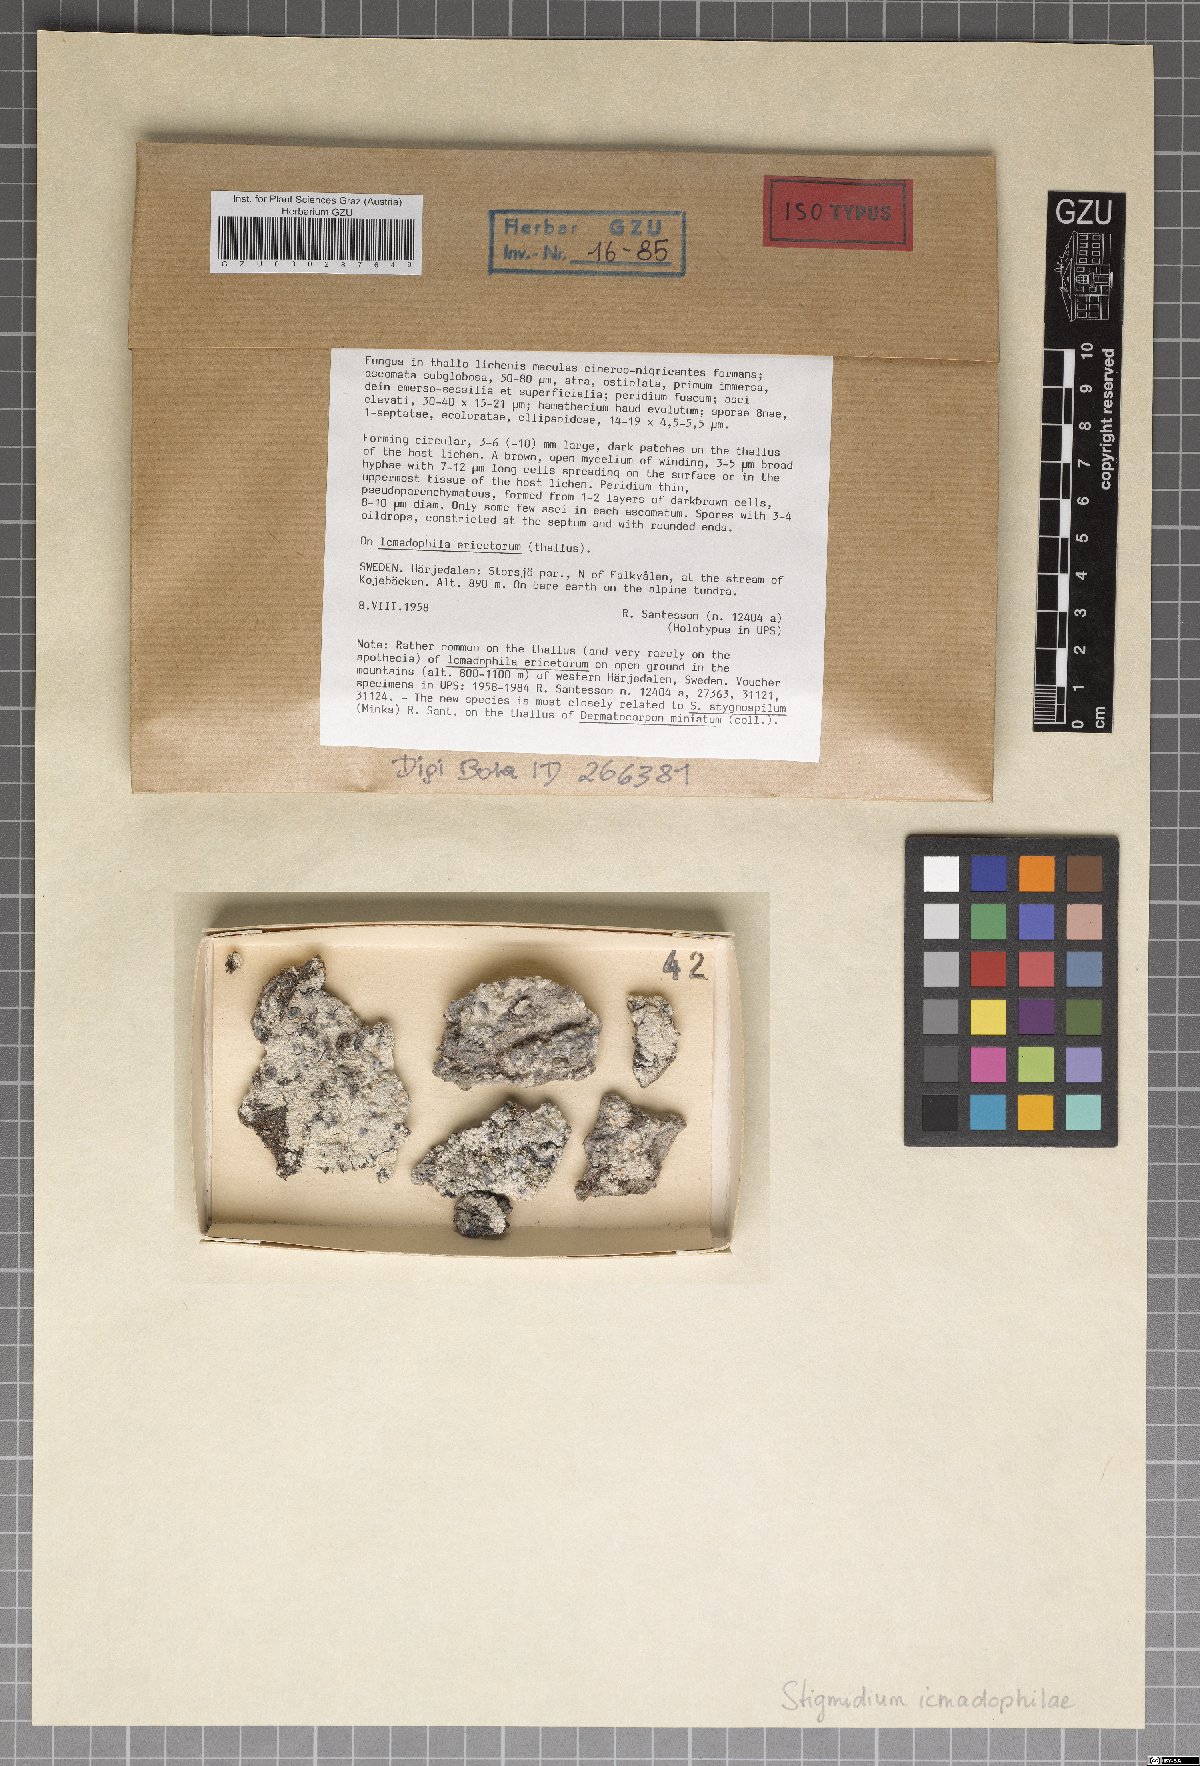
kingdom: Fungi
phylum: Ascomycota
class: Dothideomycetes
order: Mycosphaerellales
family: Mycosphaerellaceae
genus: Sphaerellothecium
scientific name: Sphaerellothecium icmadophilae
